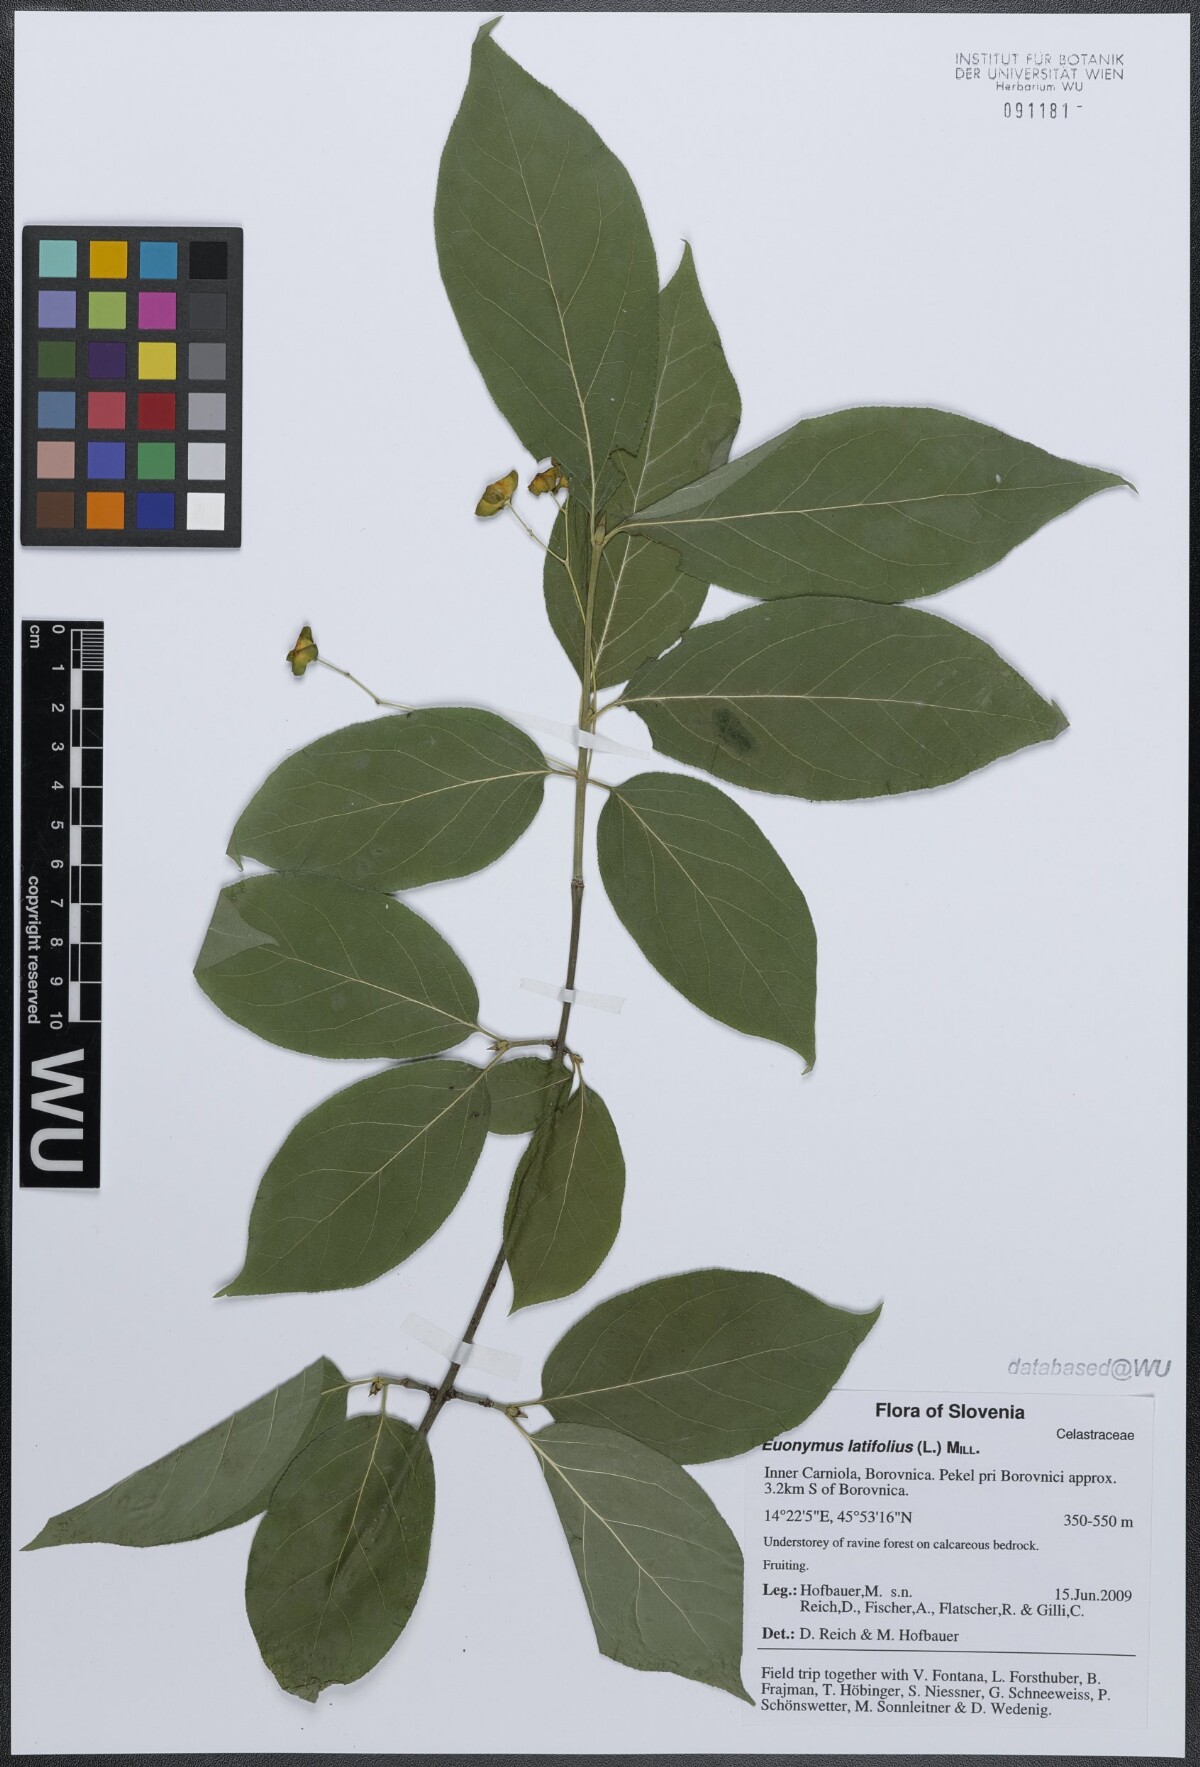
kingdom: Plantae
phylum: Tracheophyta
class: Magnoliopsida
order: Celastrales
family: Celastraceae
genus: Euonymus
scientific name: Euonymus latifolius
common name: Large-leaved spindle
